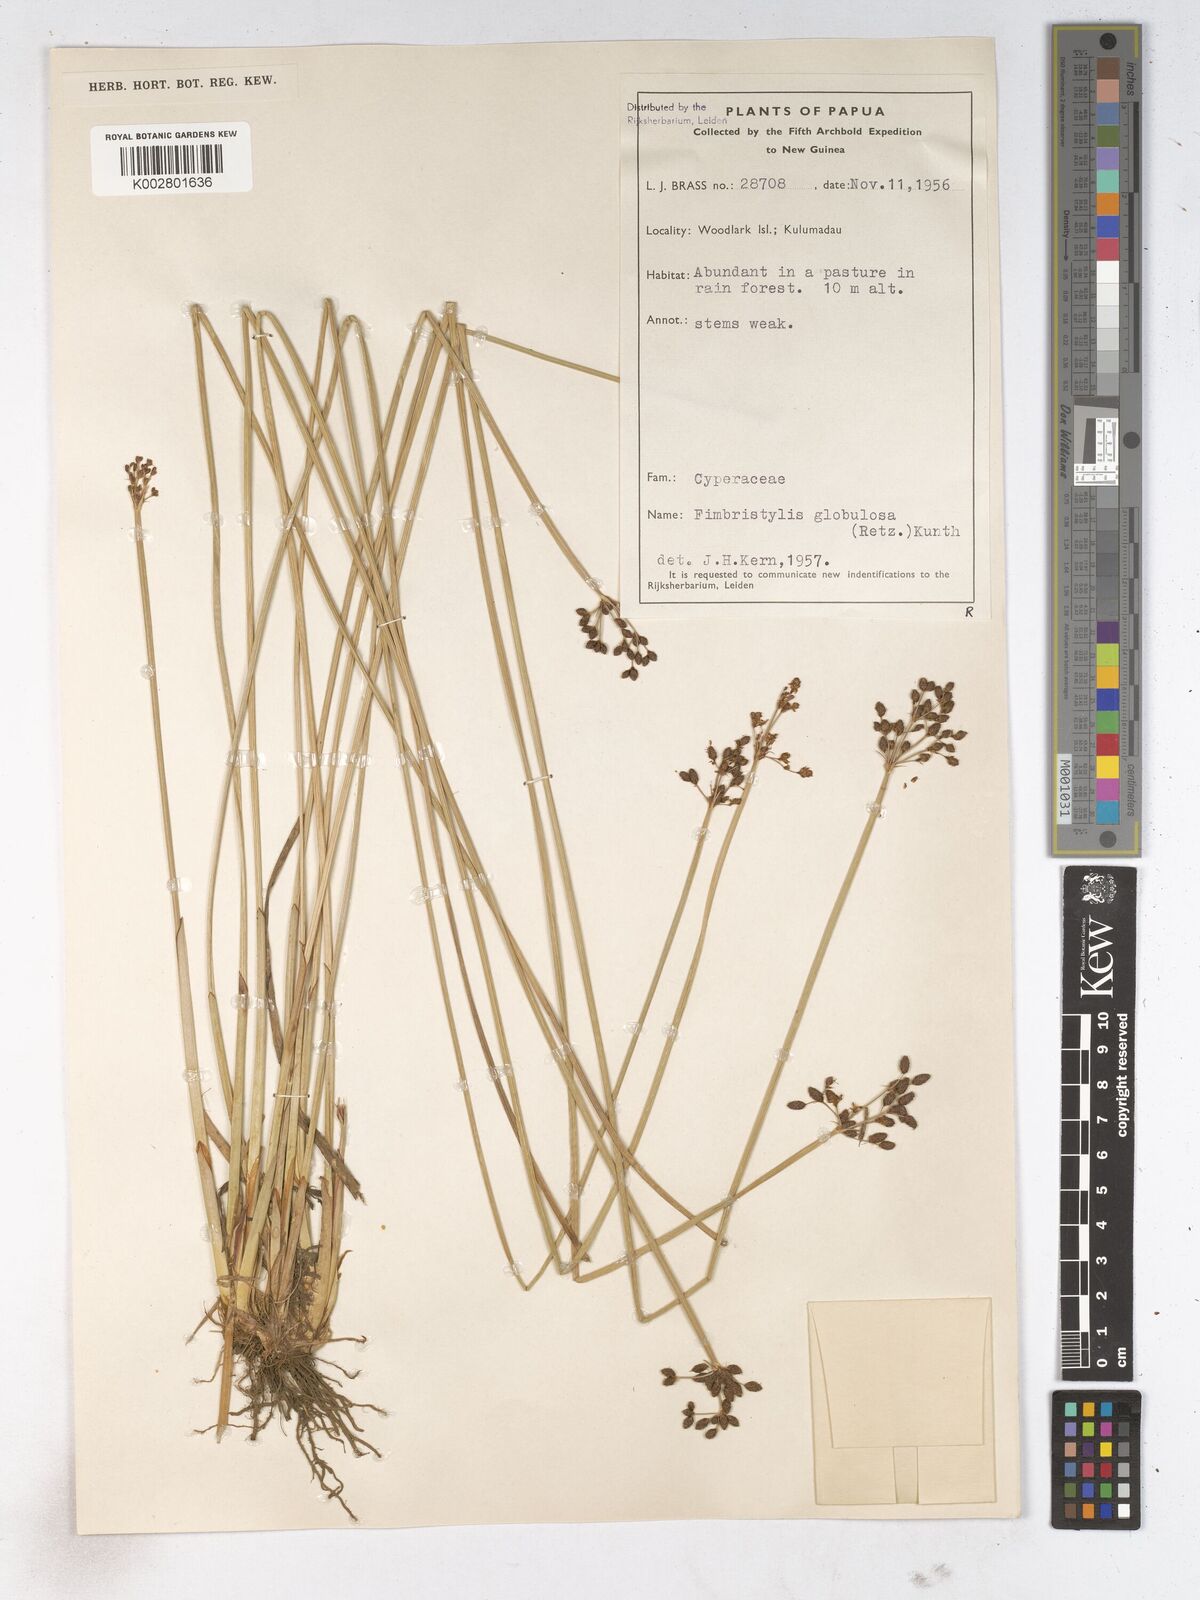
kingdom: Plantae
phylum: Tracheophyta
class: Liliopsida
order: Poales
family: Cyperaceae
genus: Fimbristylis
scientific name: Fimbristylis umbellaris
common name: Globular fimbristylis
